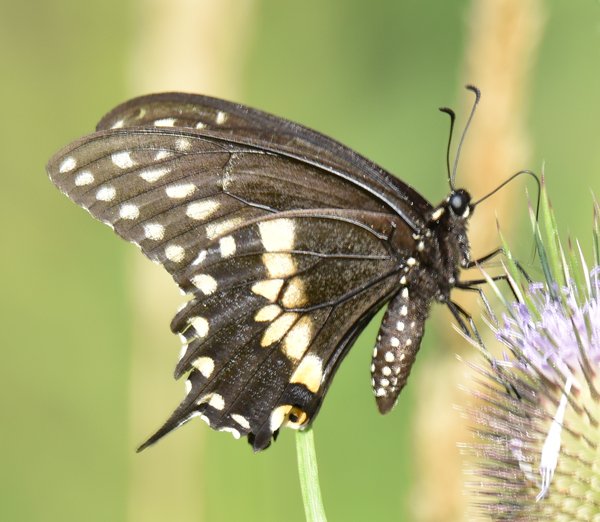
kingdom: Animalia
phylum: Arthropoda
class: Insecta
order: Lepidoptera
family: Papilionidae
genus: Papilio
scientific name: Papilio polyxenes
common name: Black Swallowtail
